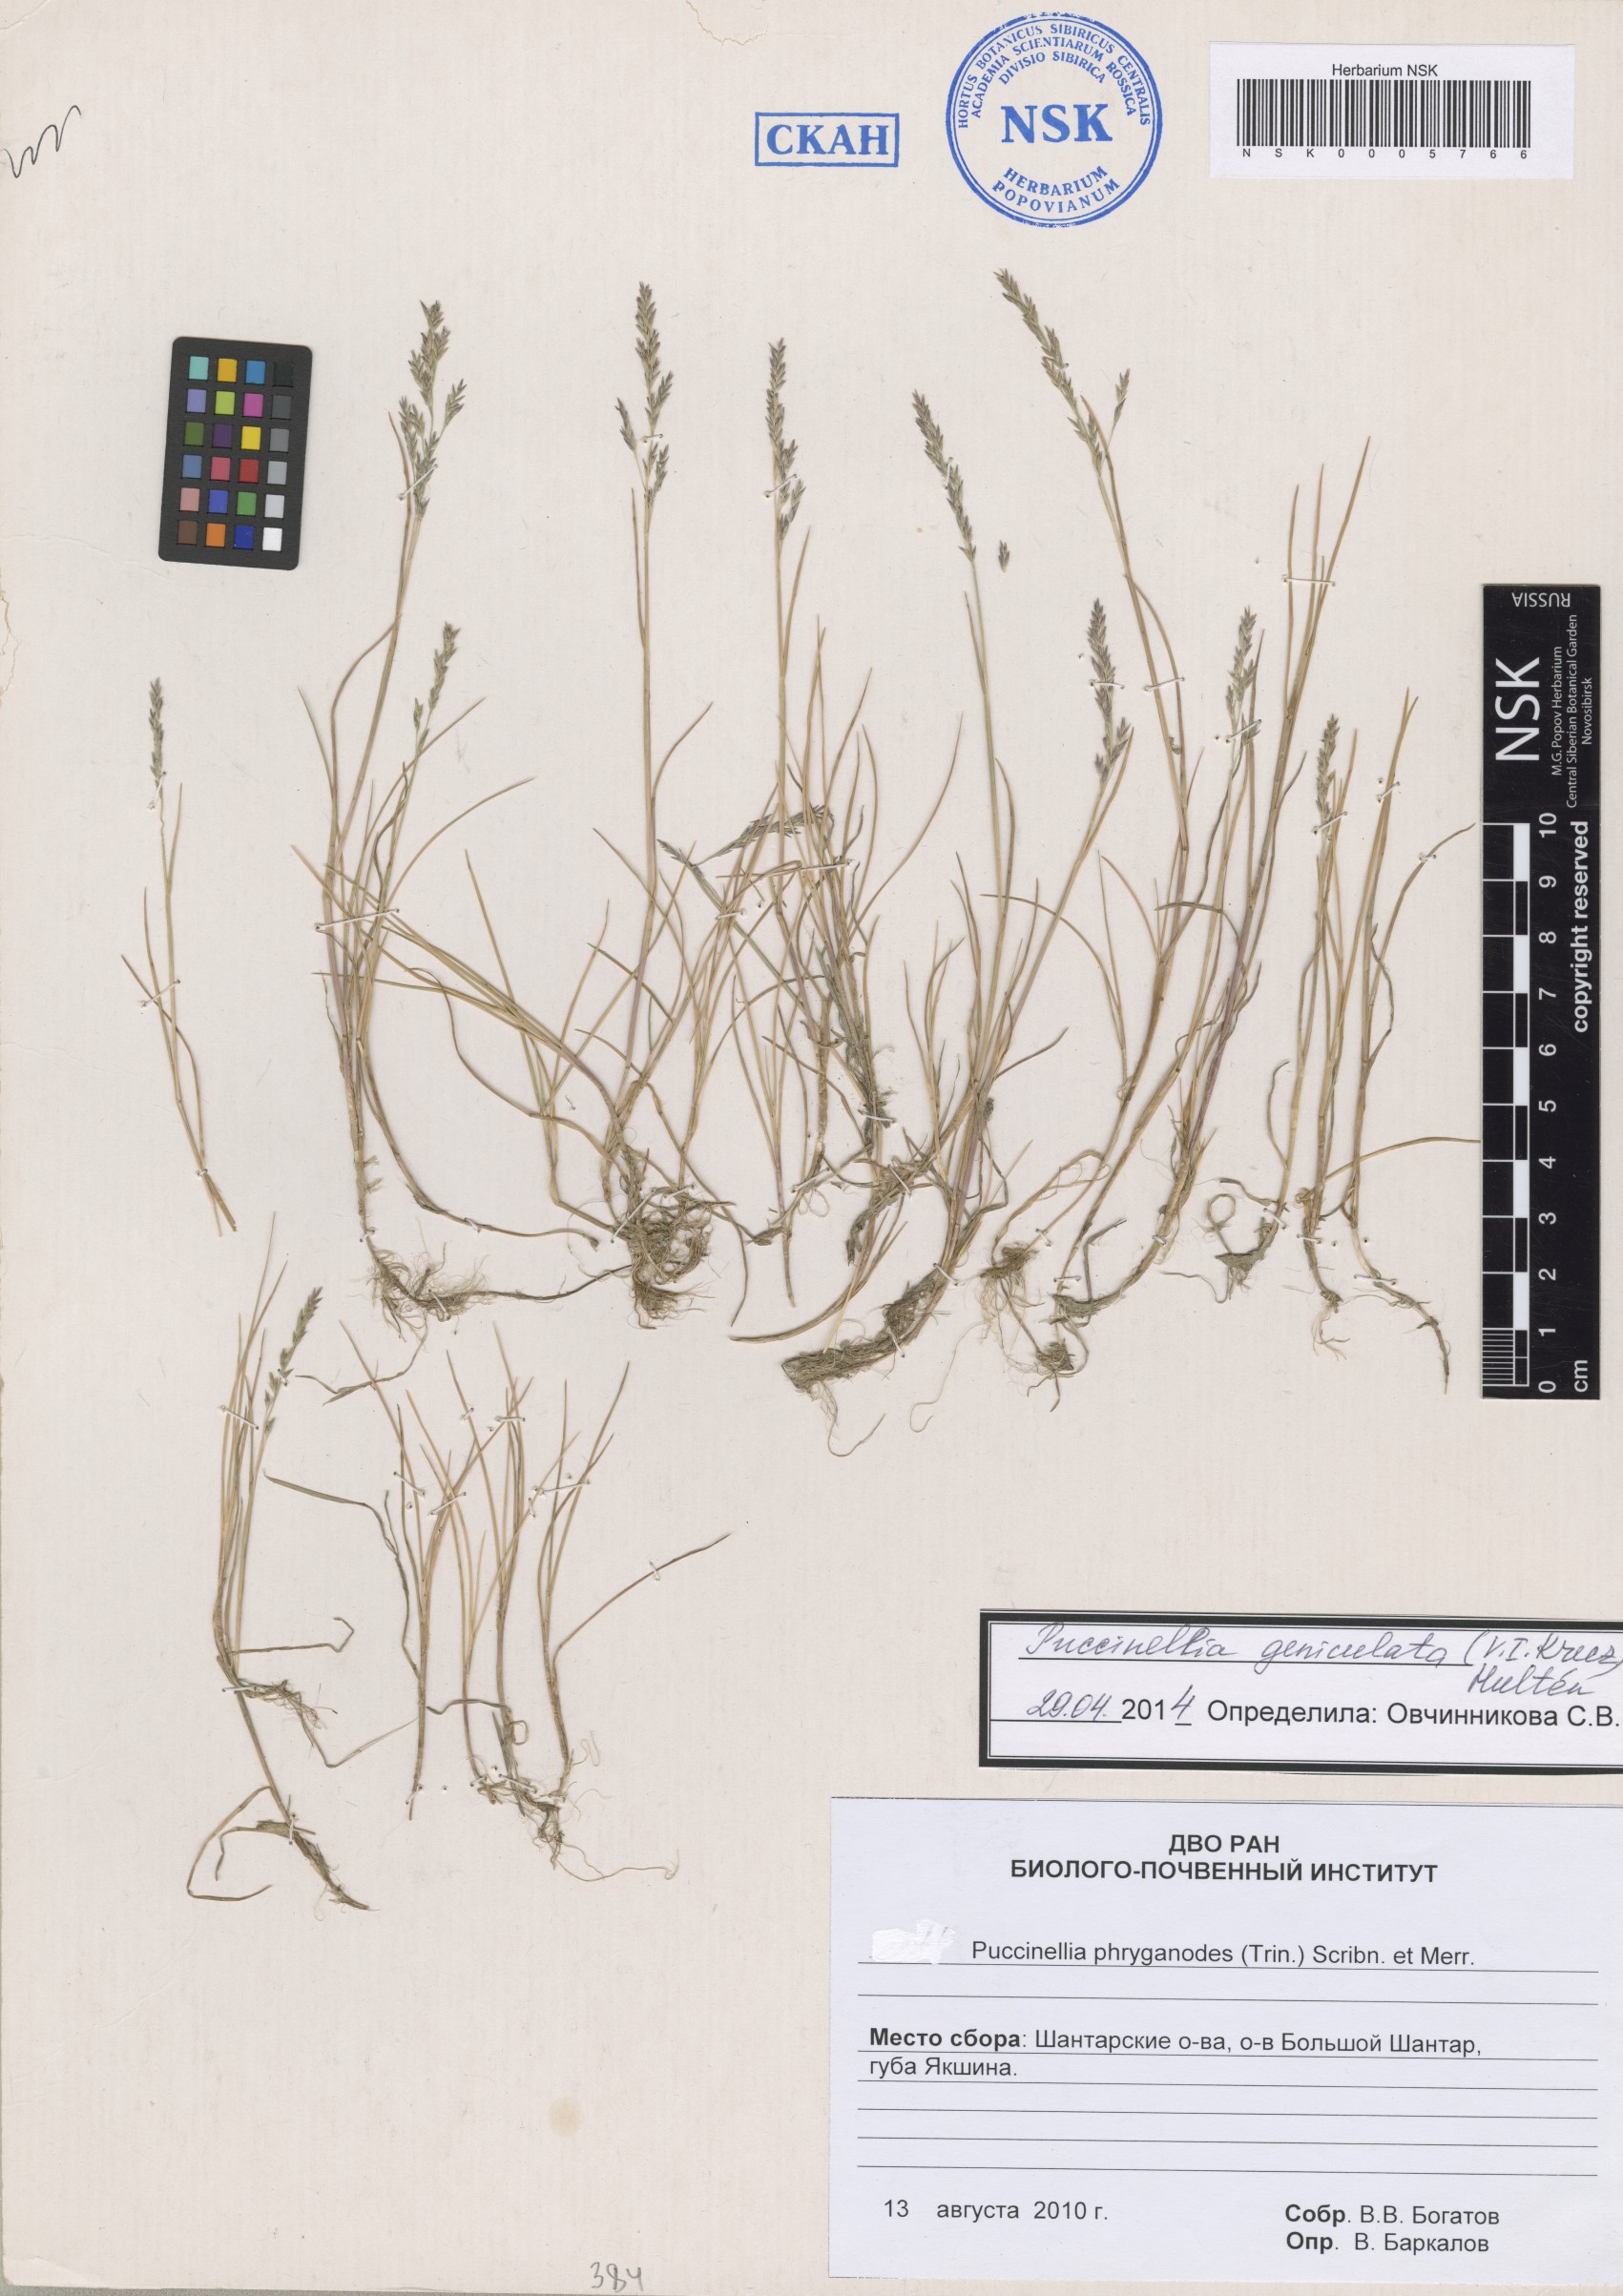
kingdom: Plantae
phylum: Tracheophyta
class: Liliopsida
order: Poales
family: Poaceae
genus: Puccinellia
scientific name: Puccinellia phryganodes
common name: Creeping alkaligrass
